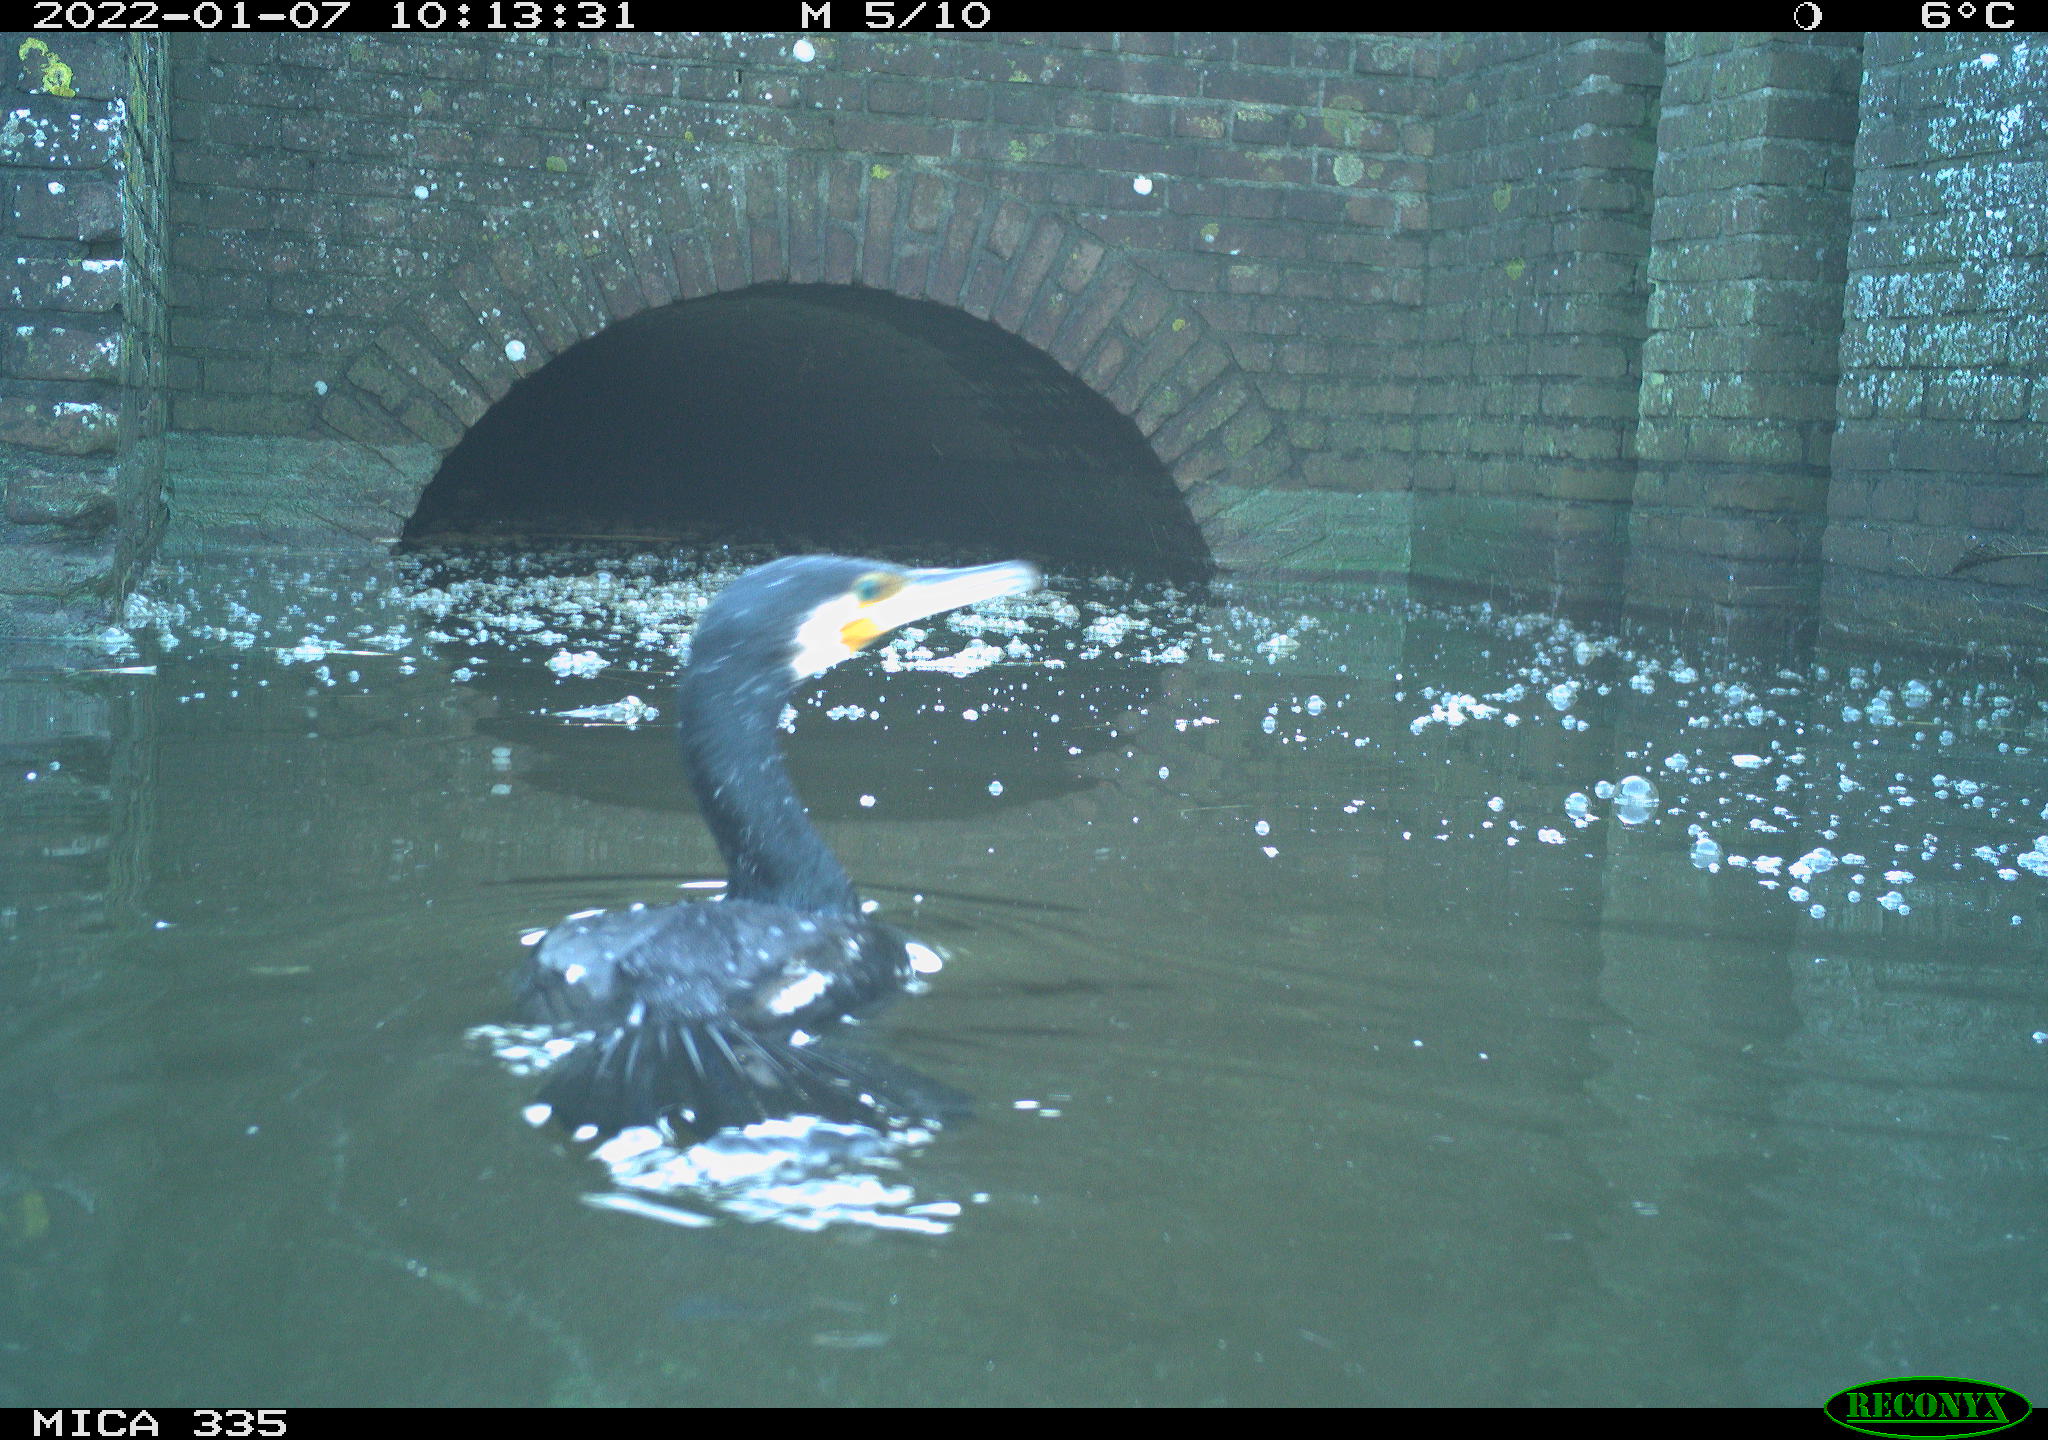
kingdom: Animalia
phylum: Chordata
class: Aves
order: Suliformes
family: Phalacrocoracidae
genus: Phalacrocorax
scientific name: Phalacrocorax carbo
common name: Great cormorant
